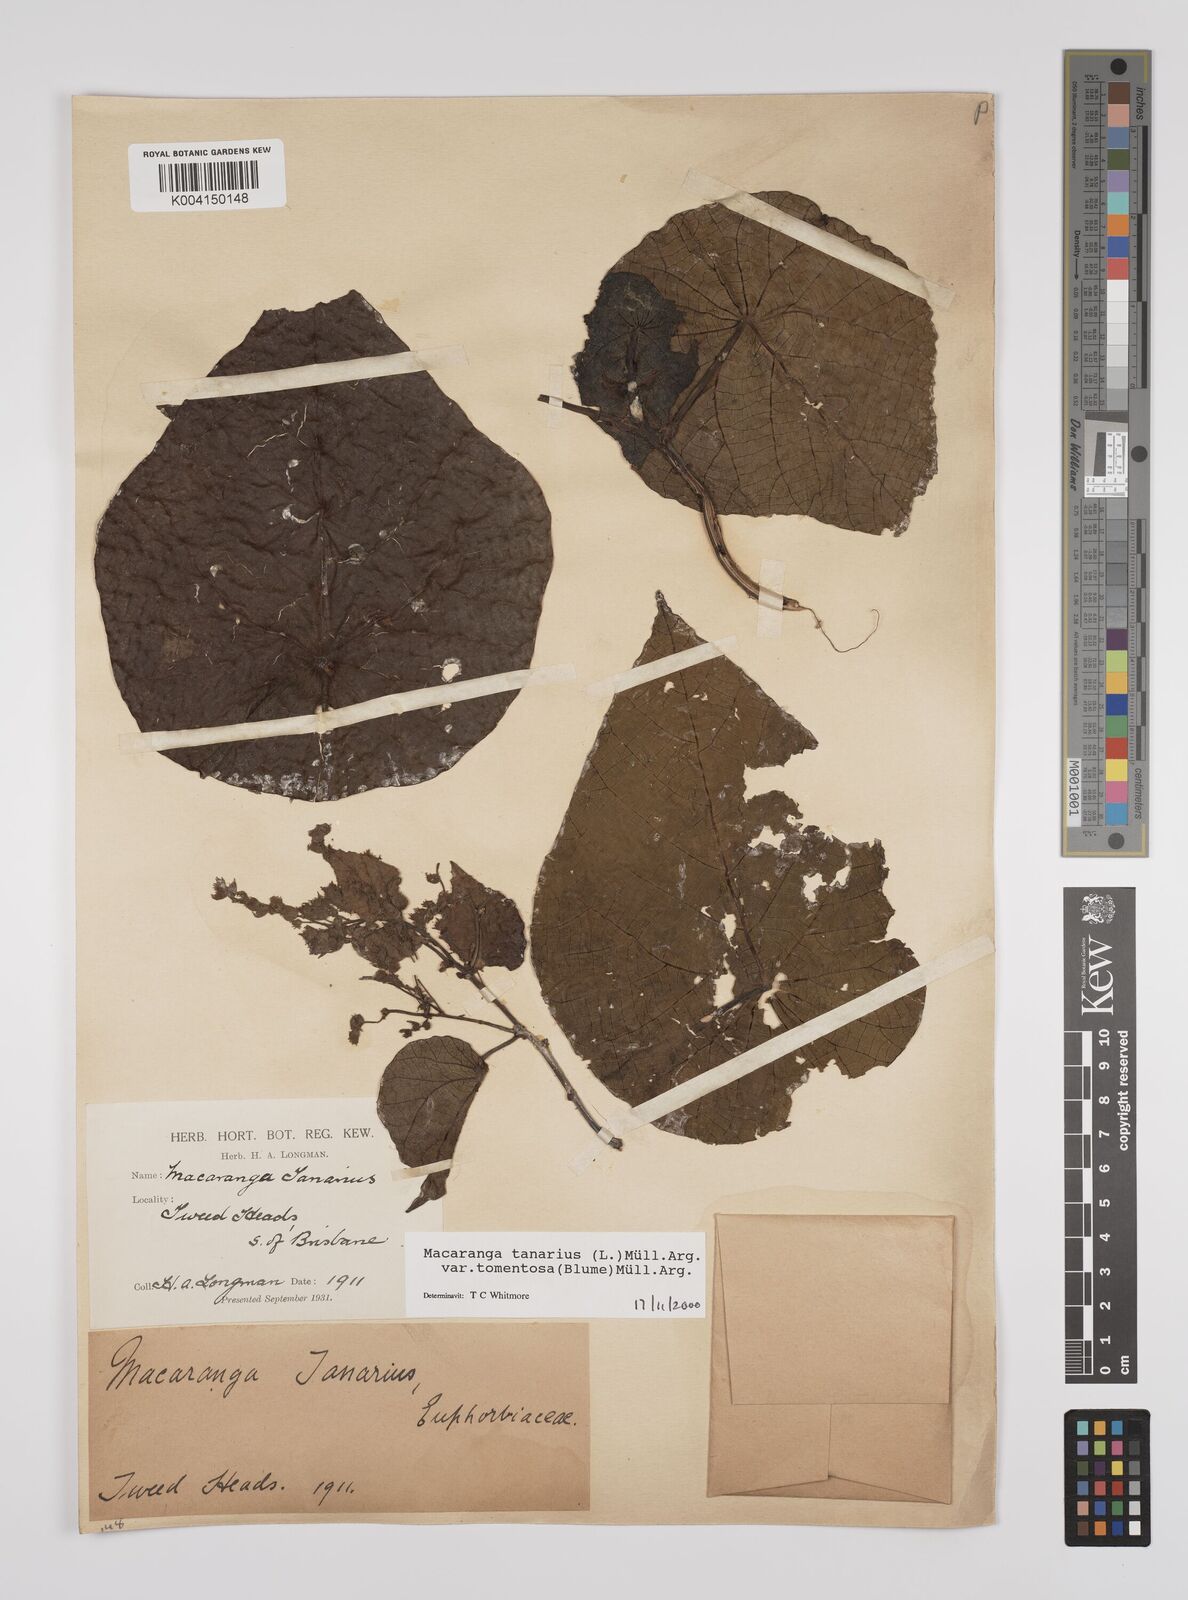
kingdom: Plantae
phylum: Tracheophyta
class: Magnoliopsida
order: Malpighiales
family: Euphorbiaceae
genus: Macaranga
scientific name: Macaranga tanarius
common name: Parasol leaf tree
